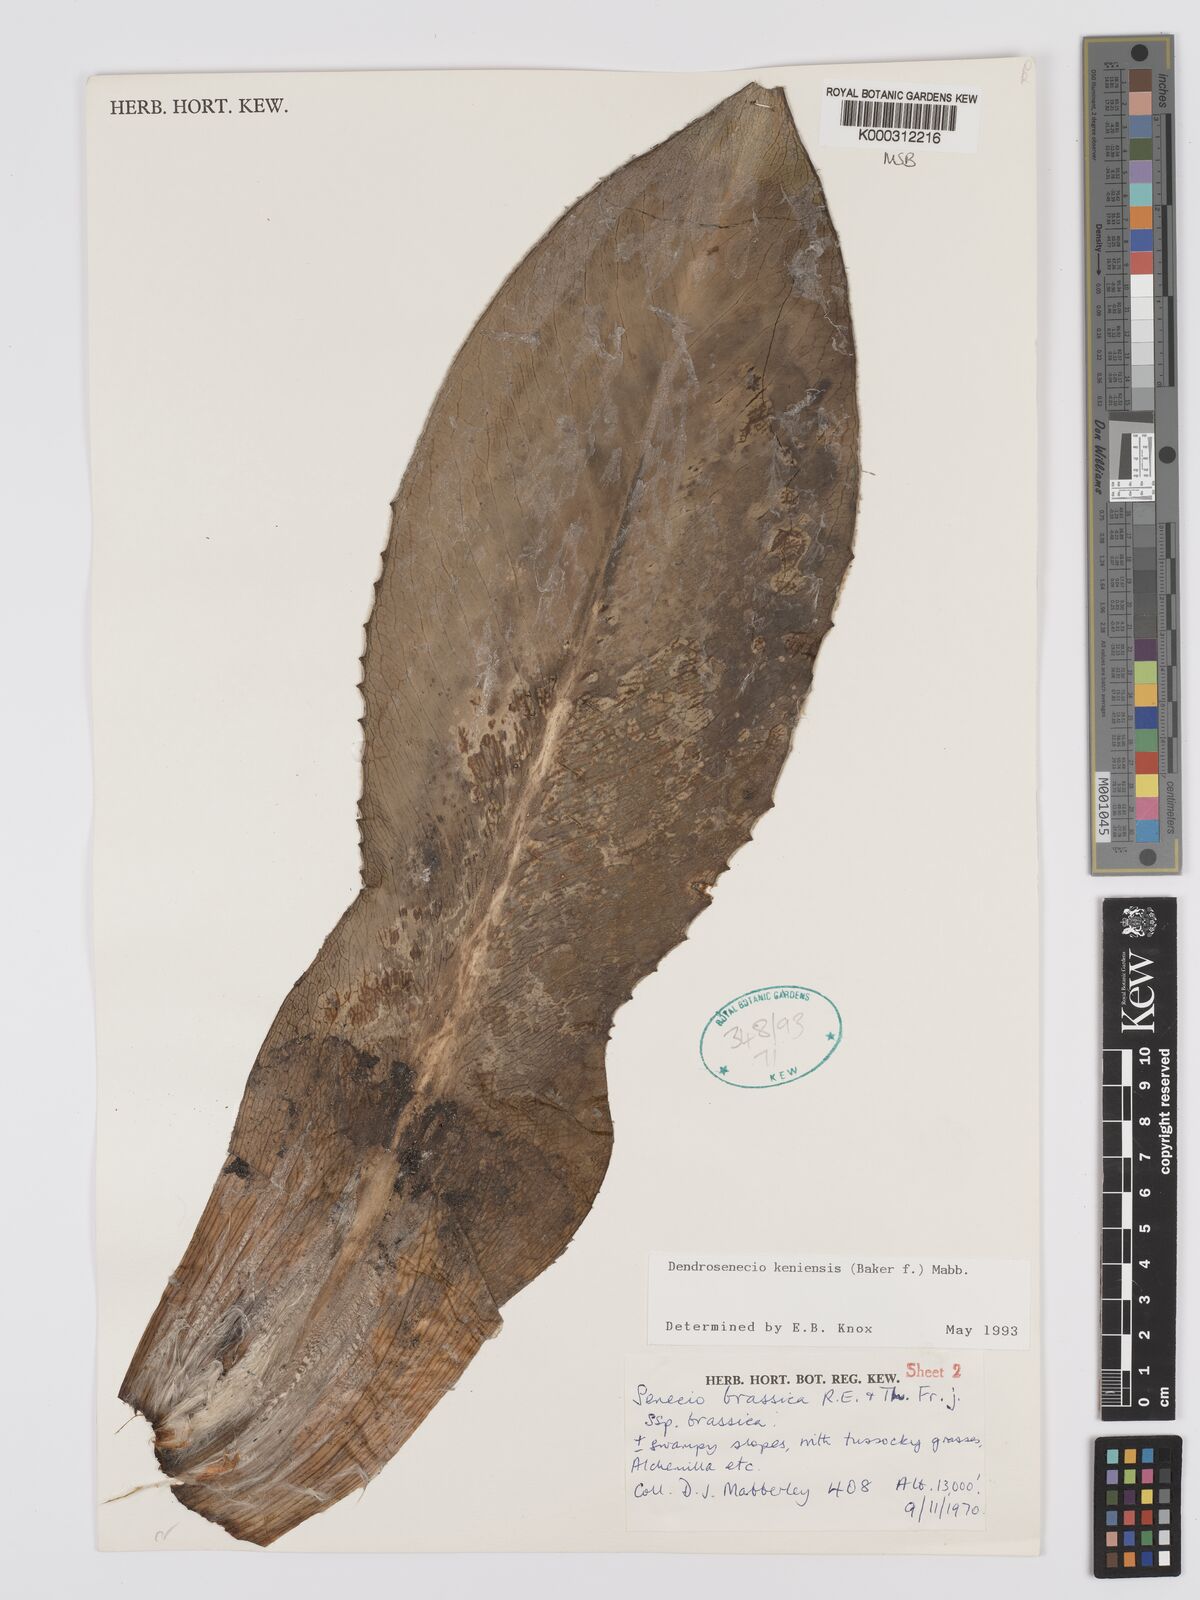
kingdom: Plantae
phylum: Tracheophyta
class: Magnoliopsida
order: Asterales
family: Asteraceae
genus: Dendrosenecio
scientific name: Dendrosenecio keniensis
